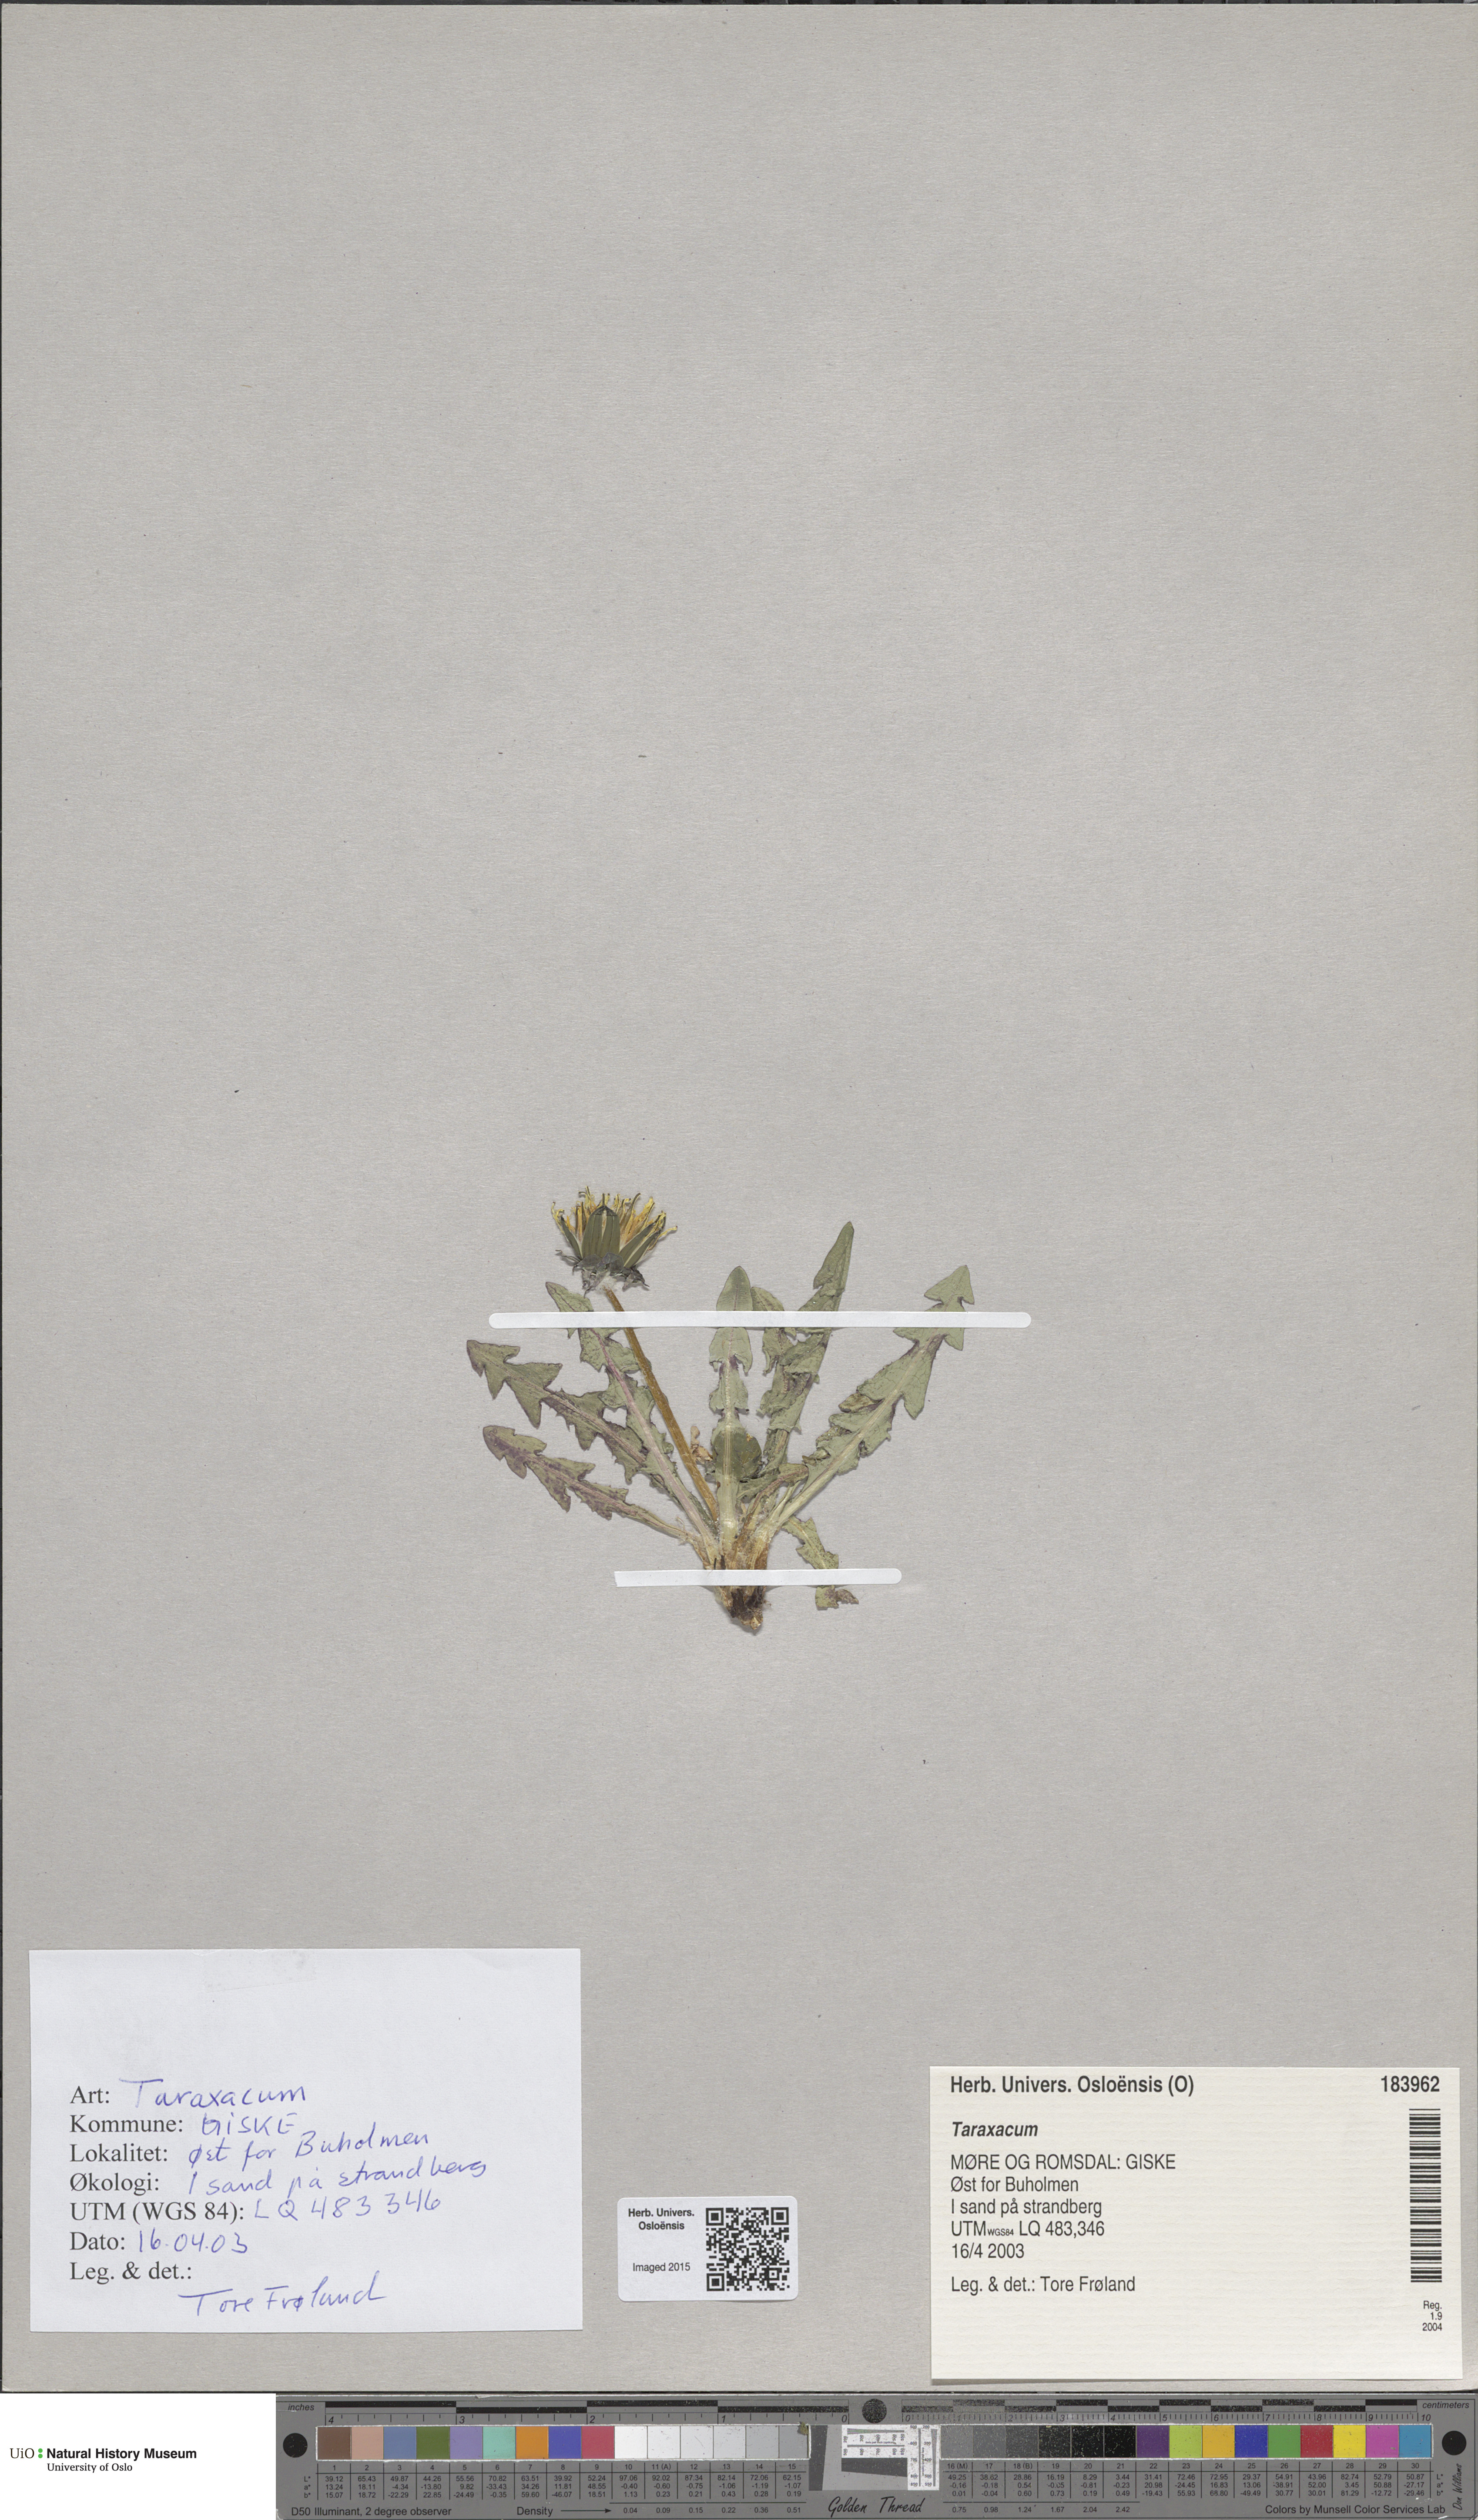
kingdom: Plantae
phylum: Tracheophyta
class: Magnoliopsida
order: Asterales
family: Asteraceae
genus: Taraxacum
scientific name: Taraxacum
